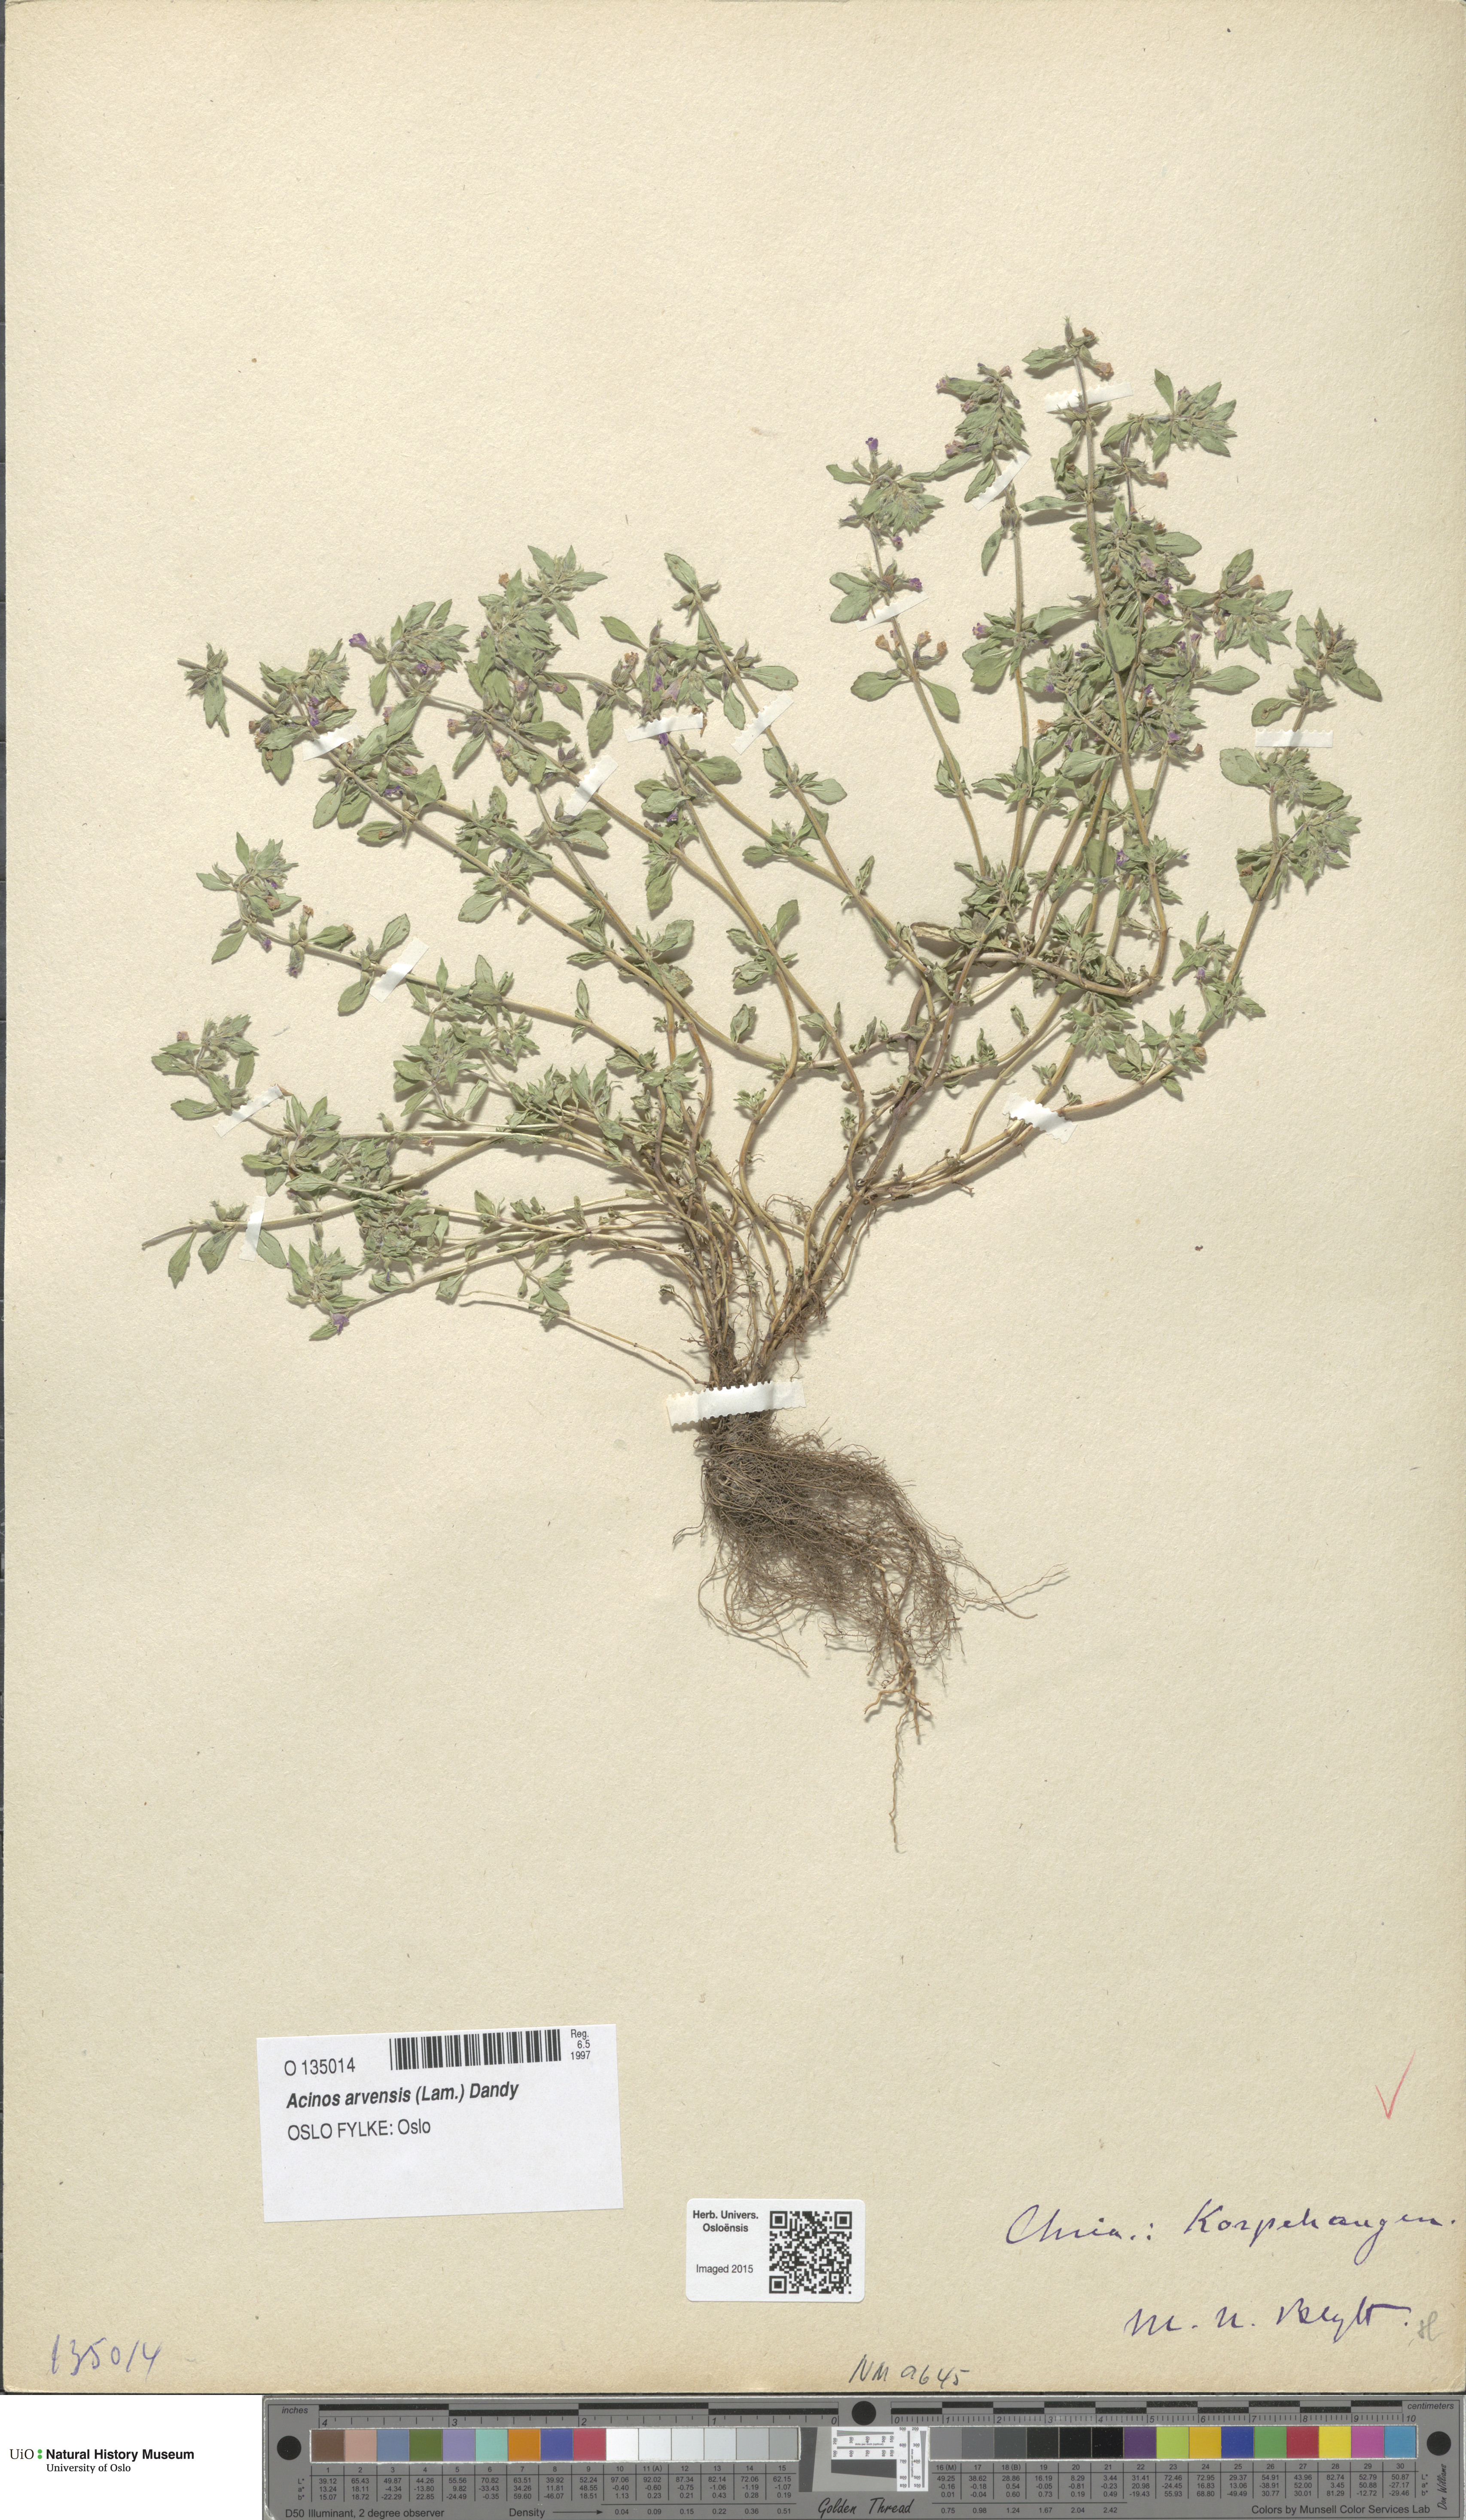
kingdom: Plantae
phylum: Tracheophyta
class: Magnoliopsida
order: Lamiales
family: Lamiaceae
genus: Clinopodium
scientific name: Clinopodium acinos
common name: Basil thyme
